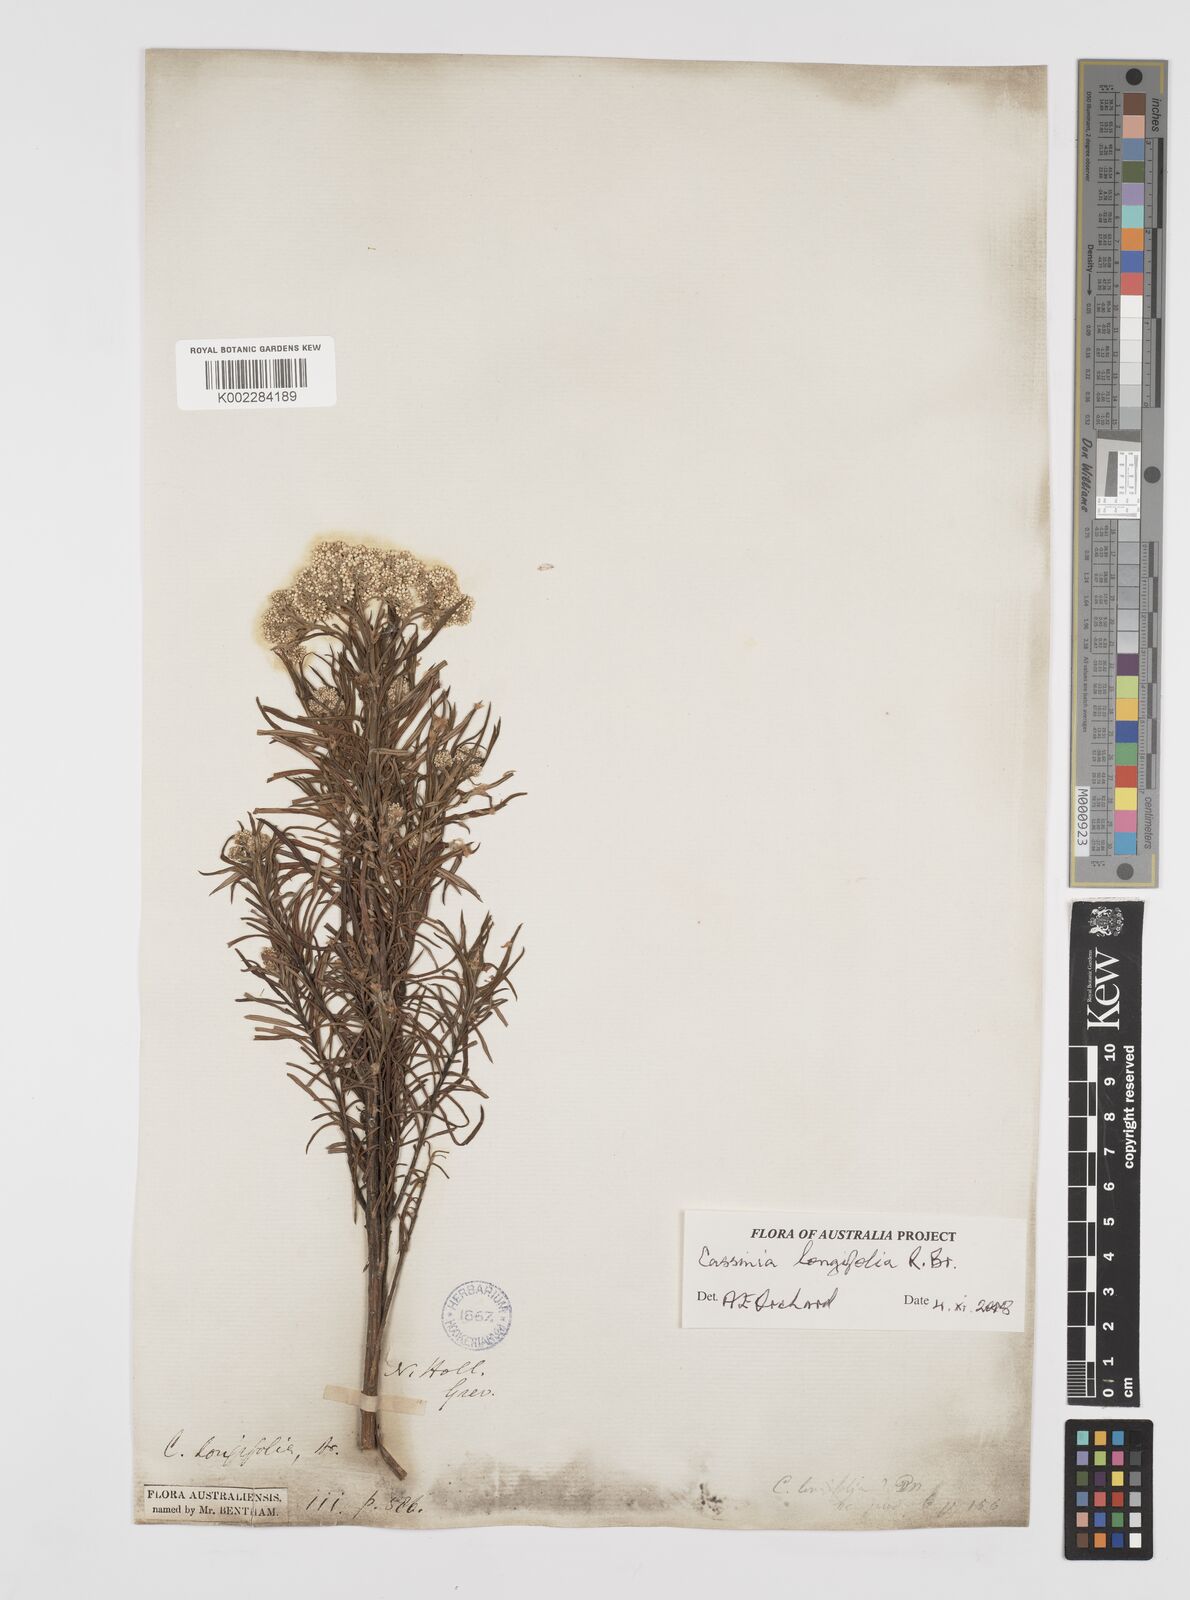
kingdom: Plantae
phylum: Tracheophyta
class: Magnoliopsida
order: Asterales
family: Asteraceae
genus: Cassinia
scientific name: Cassinia longifolia
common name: Longleaf-dogwood
